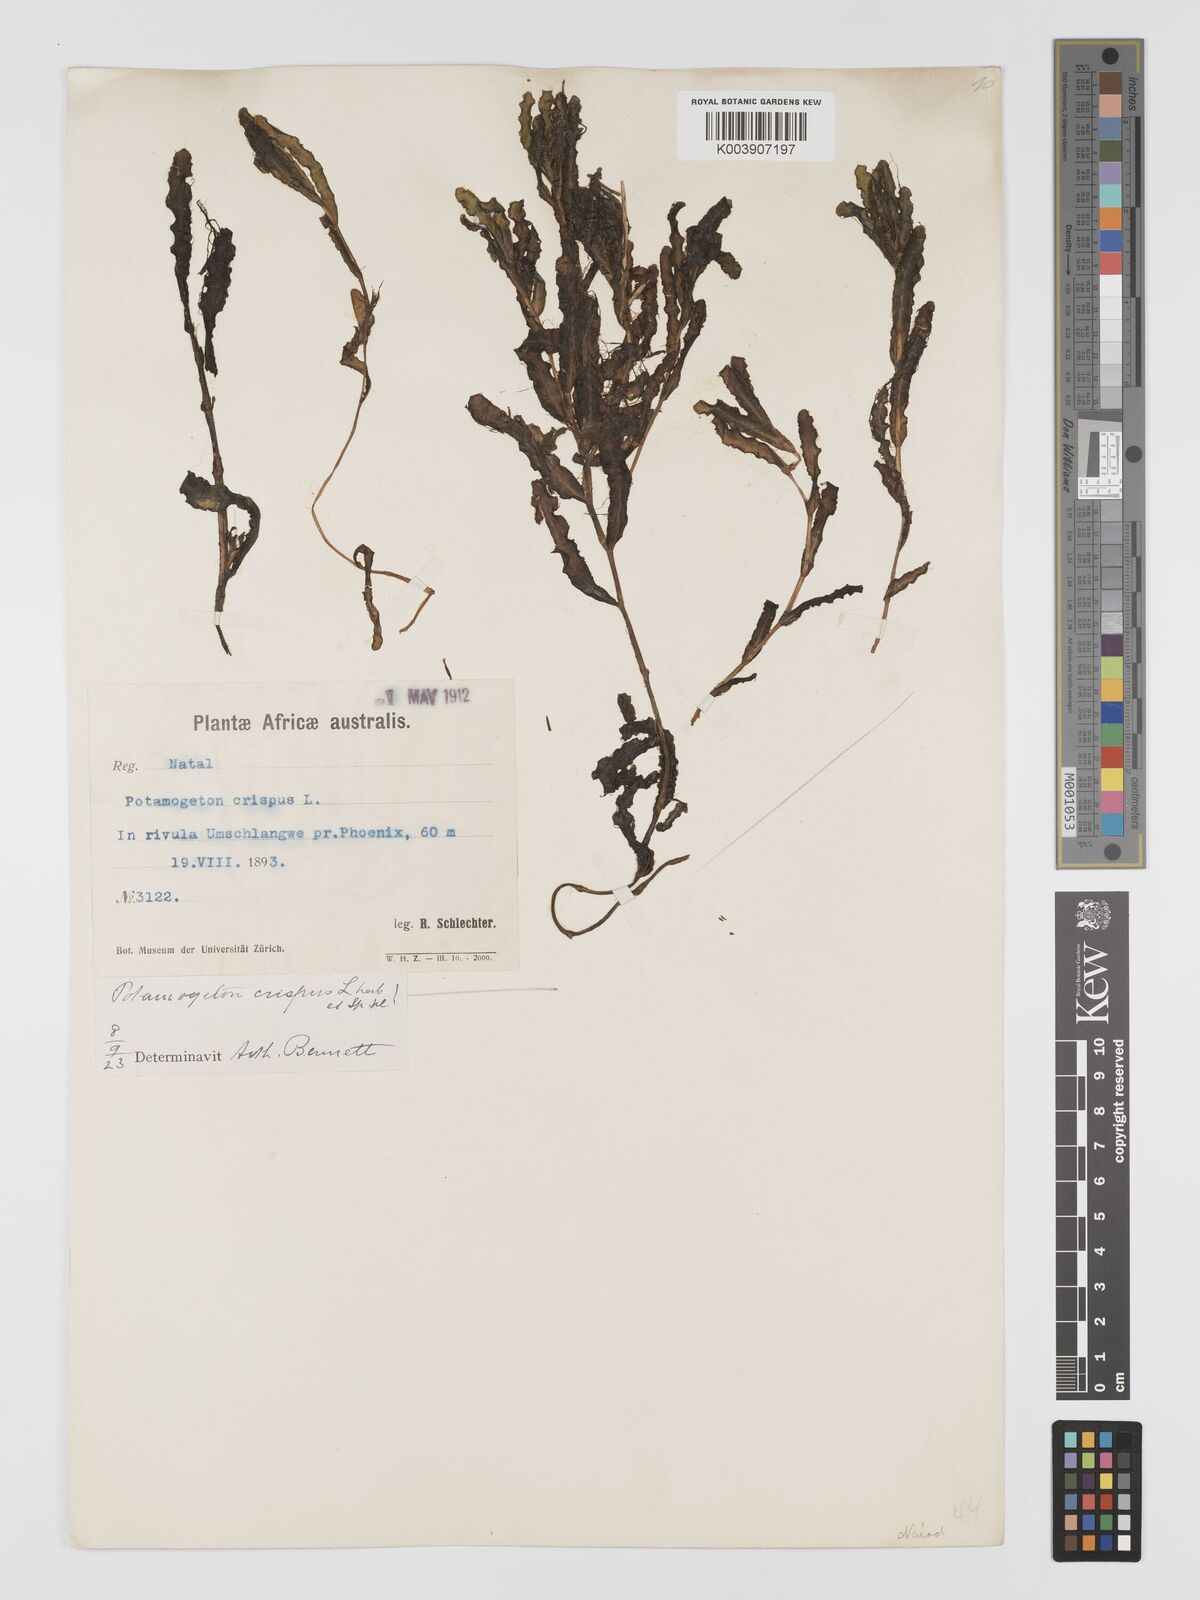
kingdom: Plantae
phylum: Tracheophyta
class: Liliopsida
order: Alismatales
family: Potamogetonaceae
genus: Potamogeton
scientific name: Potamogeton crispus
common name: Curled pondweed
